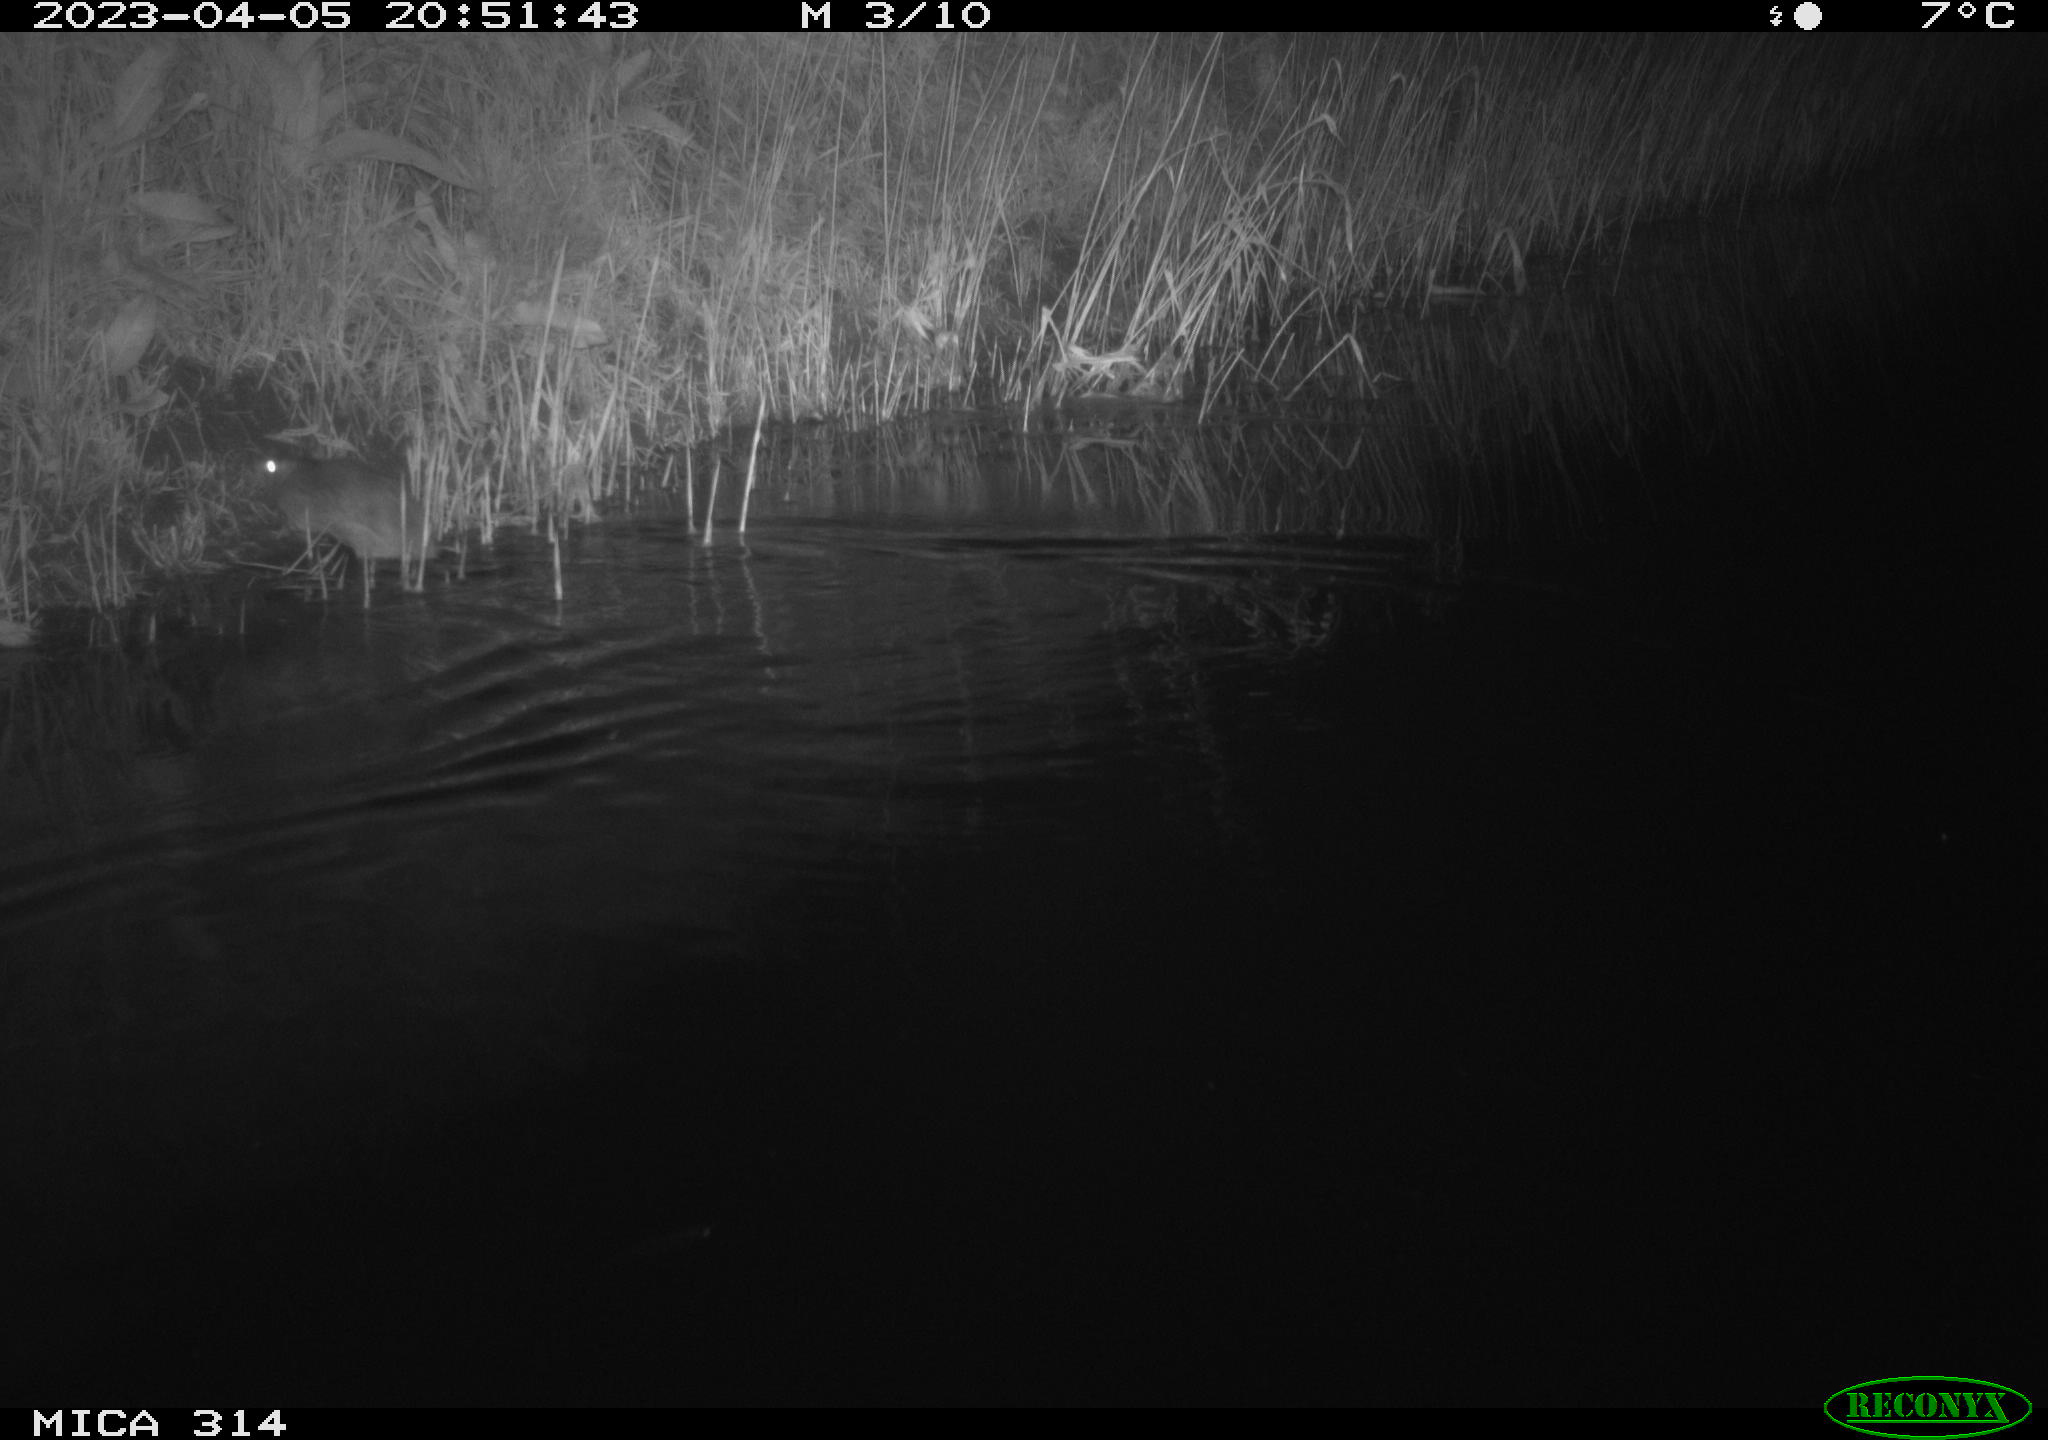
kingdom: Animalia
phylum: Chordata
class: Mammalia
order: Rodentia
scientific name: Rodentia
